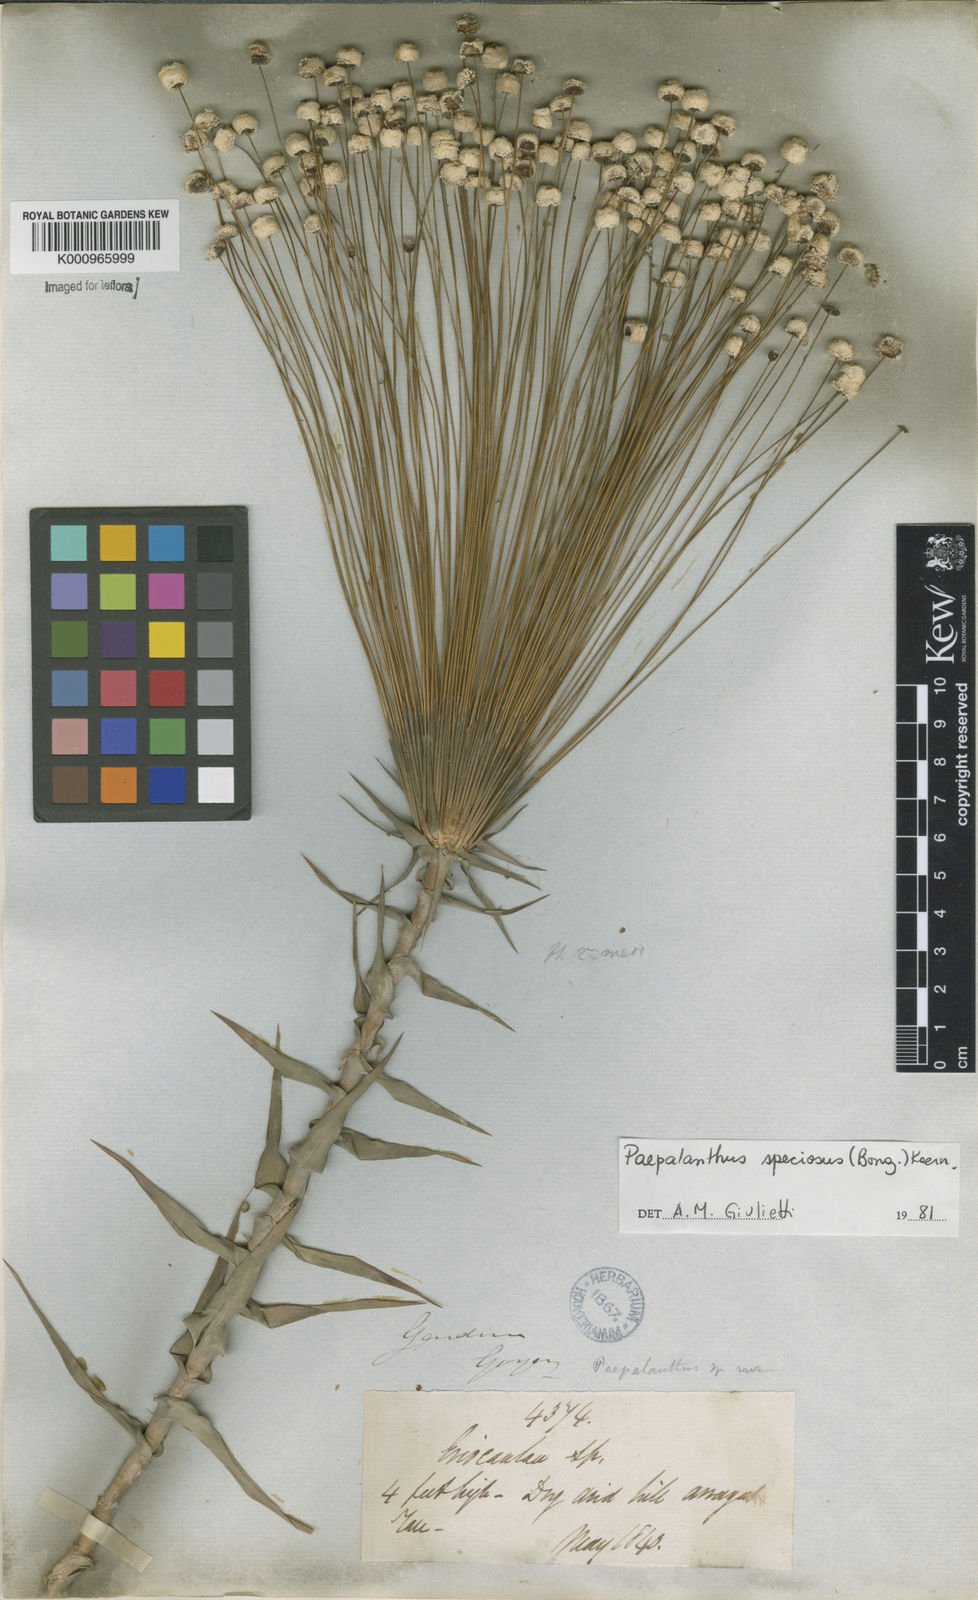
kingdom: Plantae
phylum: Tracheophyta
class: Liliopsida
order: Poales
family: Eriocaulaceae
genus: Paepalanthus
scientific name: Paepalanthus
